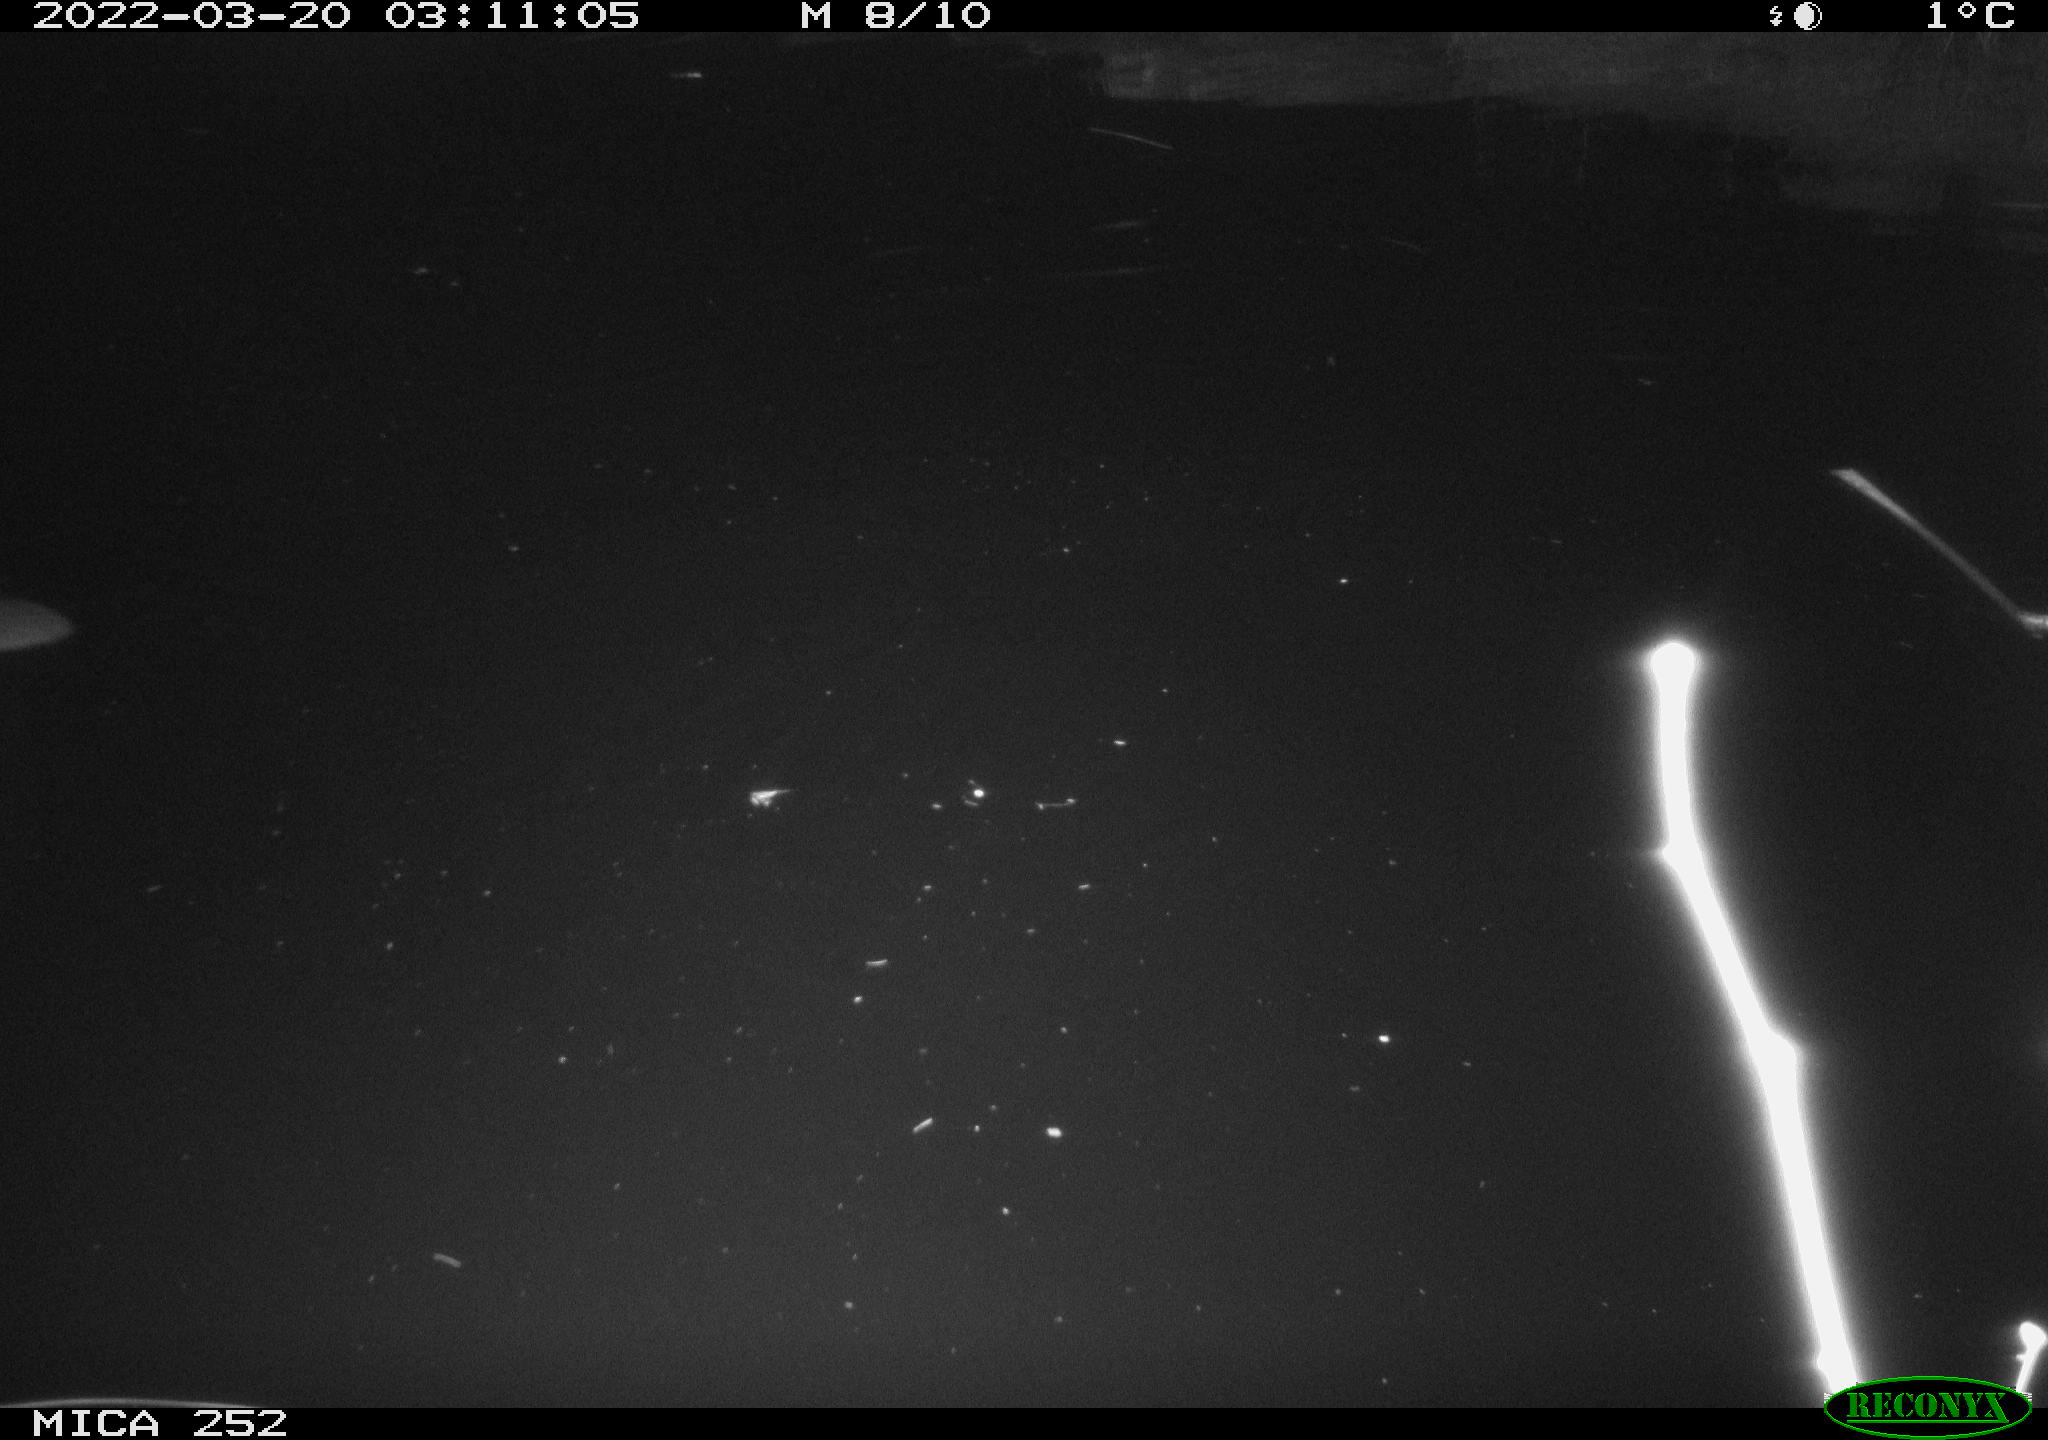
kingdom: Animalia
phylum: Chordata
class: Mammalia
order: Rodentia
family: Castoridae
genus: Castor
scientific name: Castor fiber
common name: Eurasian beaver
